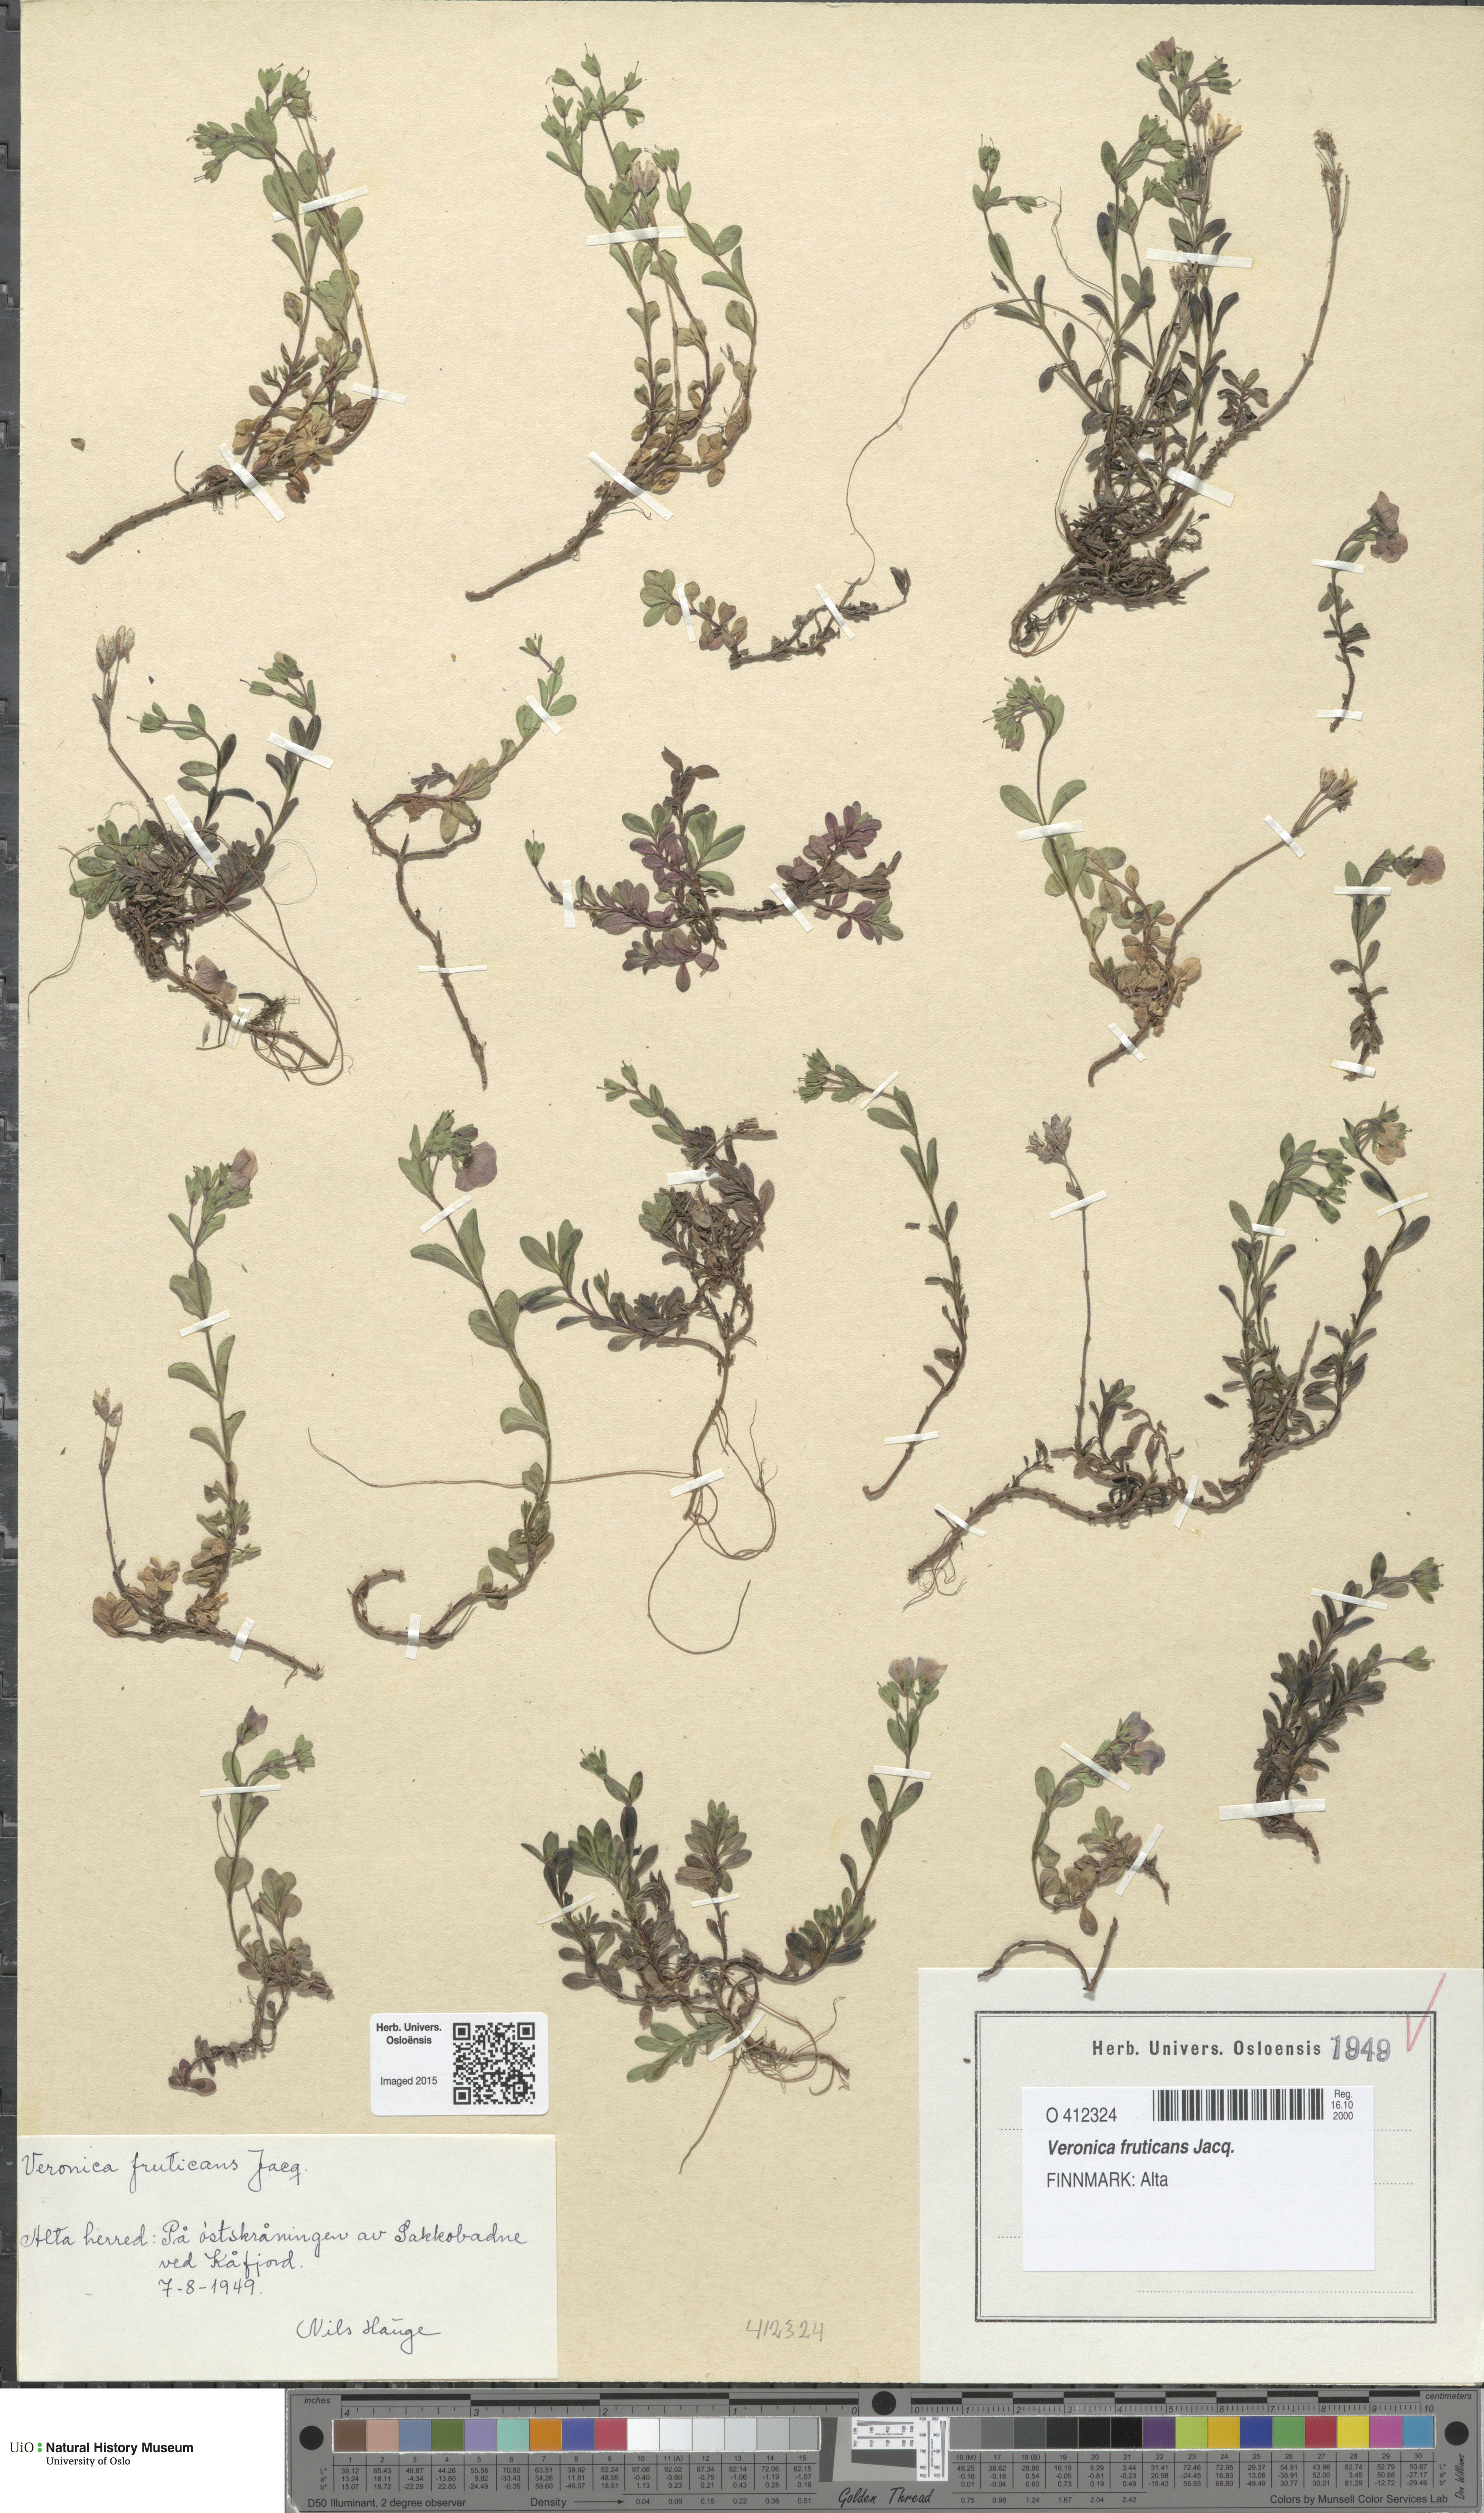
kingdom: Plantae
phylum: Tracheophyta
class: Magnoliopsida
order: Lamiales
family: Plantaginaceae
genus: Veronica
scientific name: Veronica fruticans
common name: Rock speedwell
